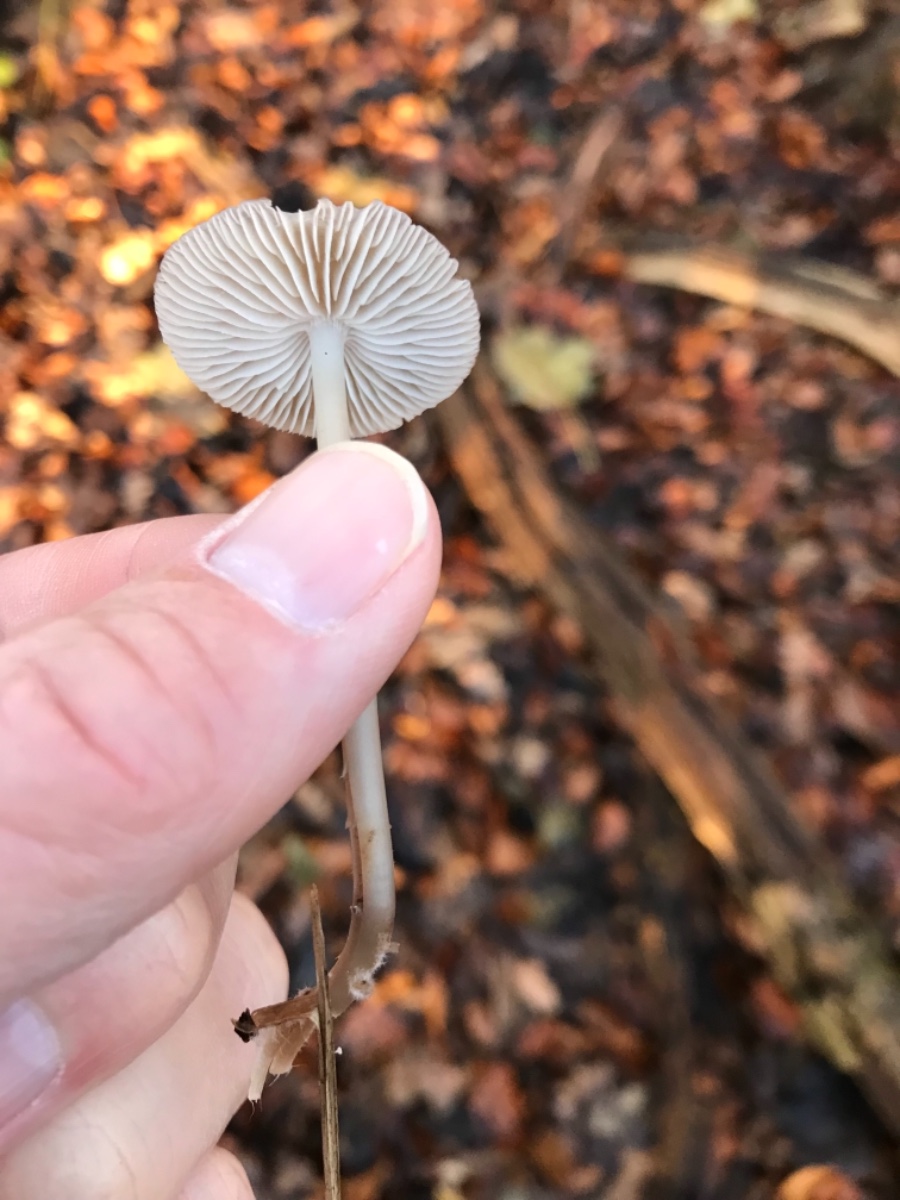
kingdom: Fungi
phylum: Basidiomycota
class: Agaricomycetes
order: Agaricales
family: Mycenaceae
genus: Mycena
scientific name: Mycena galericulata
